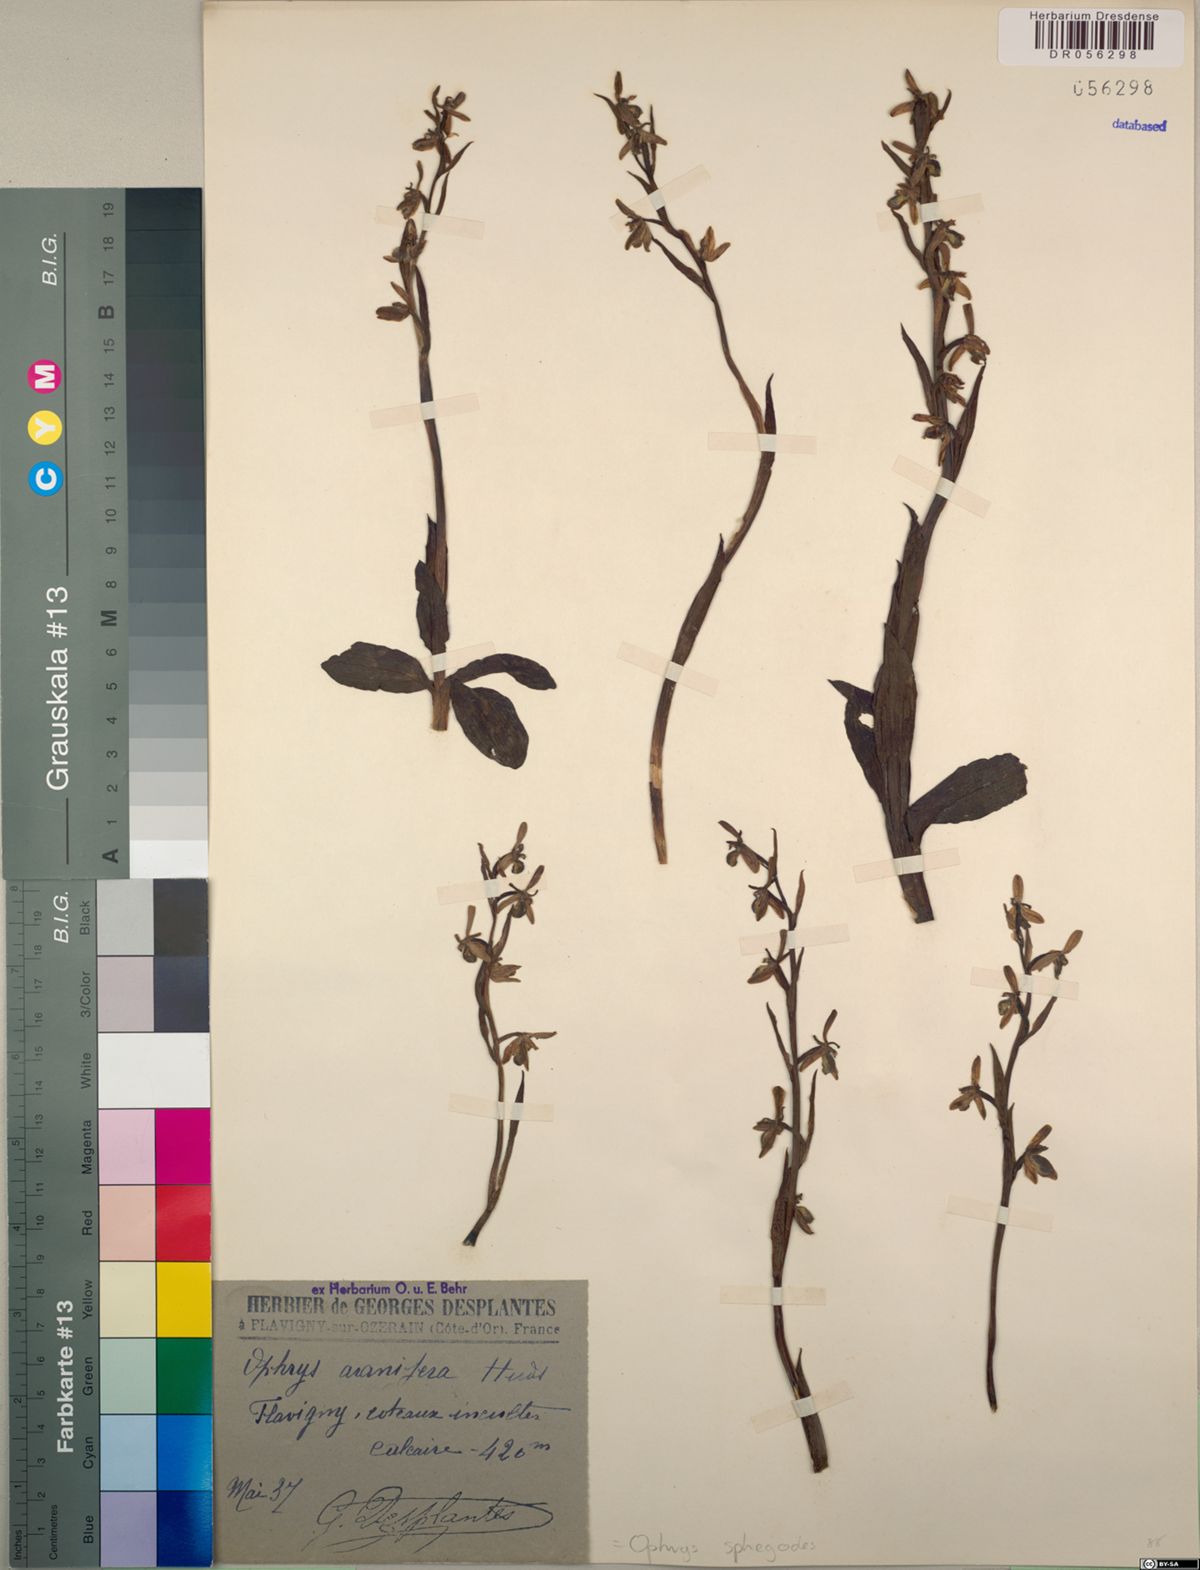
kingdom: Plantae
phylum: Tracheophyta
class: Liliopsida
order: Asparagales
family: Orchidaceae
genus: Ophrys
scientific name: Ophrys sphegodes
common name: Early spider-orchid
